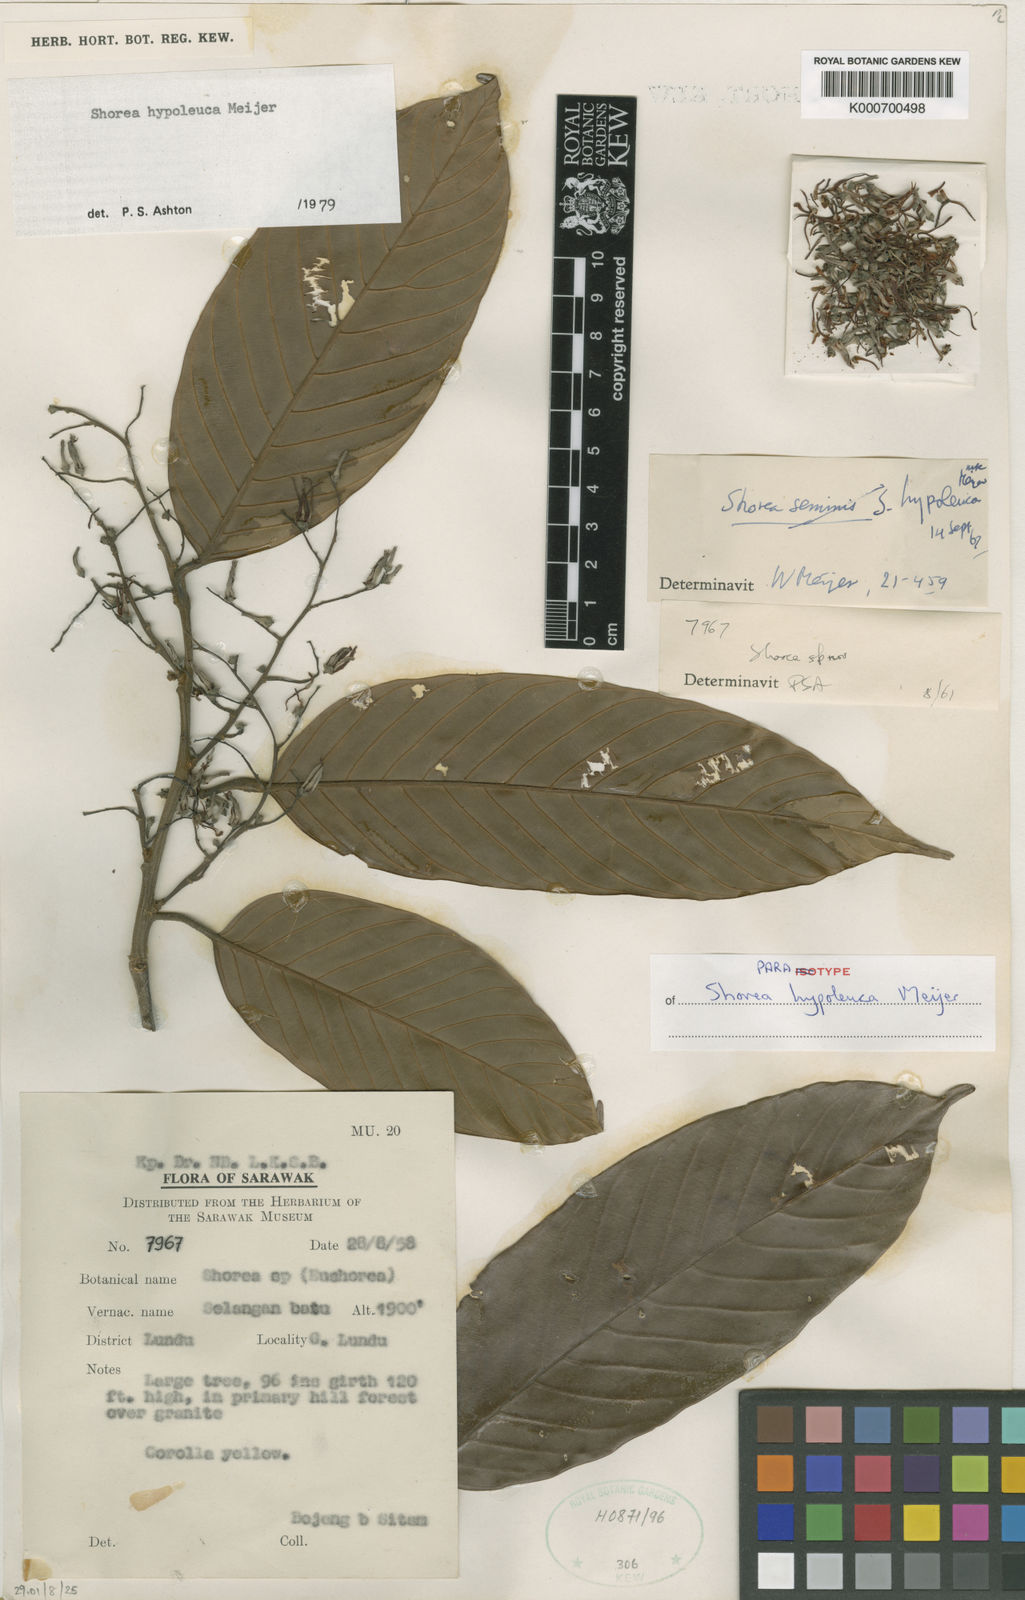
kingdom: Plantae
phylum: Tracheophyta
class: Magnoliopsida
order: Malvales
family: Dipterocarpaceae
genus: Shorea
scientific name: Shorea hypoleuca
